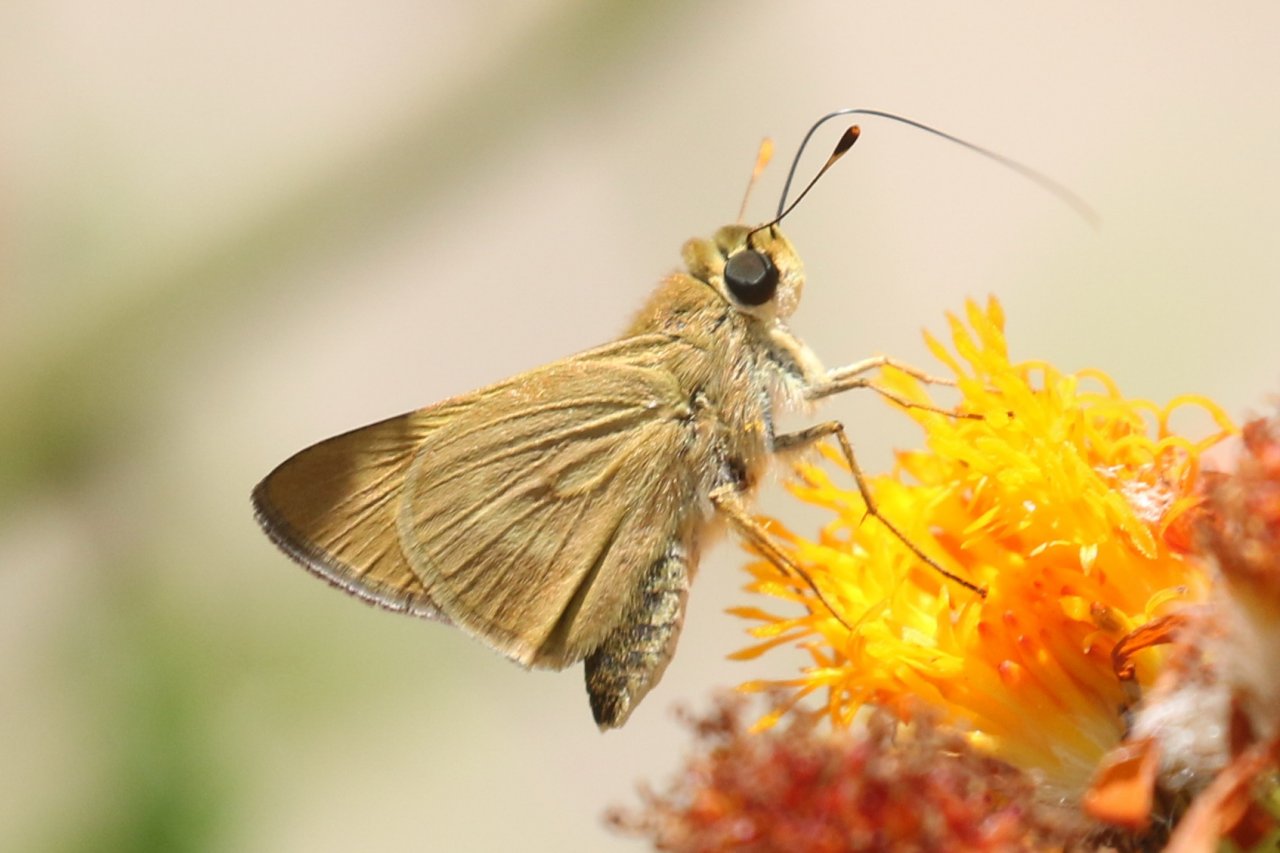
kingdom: Animalia
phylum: Arthropoda
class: Insecta
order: Lepidoptera
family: Hesperiidae
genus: Mellana
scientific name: Mellana eulogius
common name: Common Mellana
